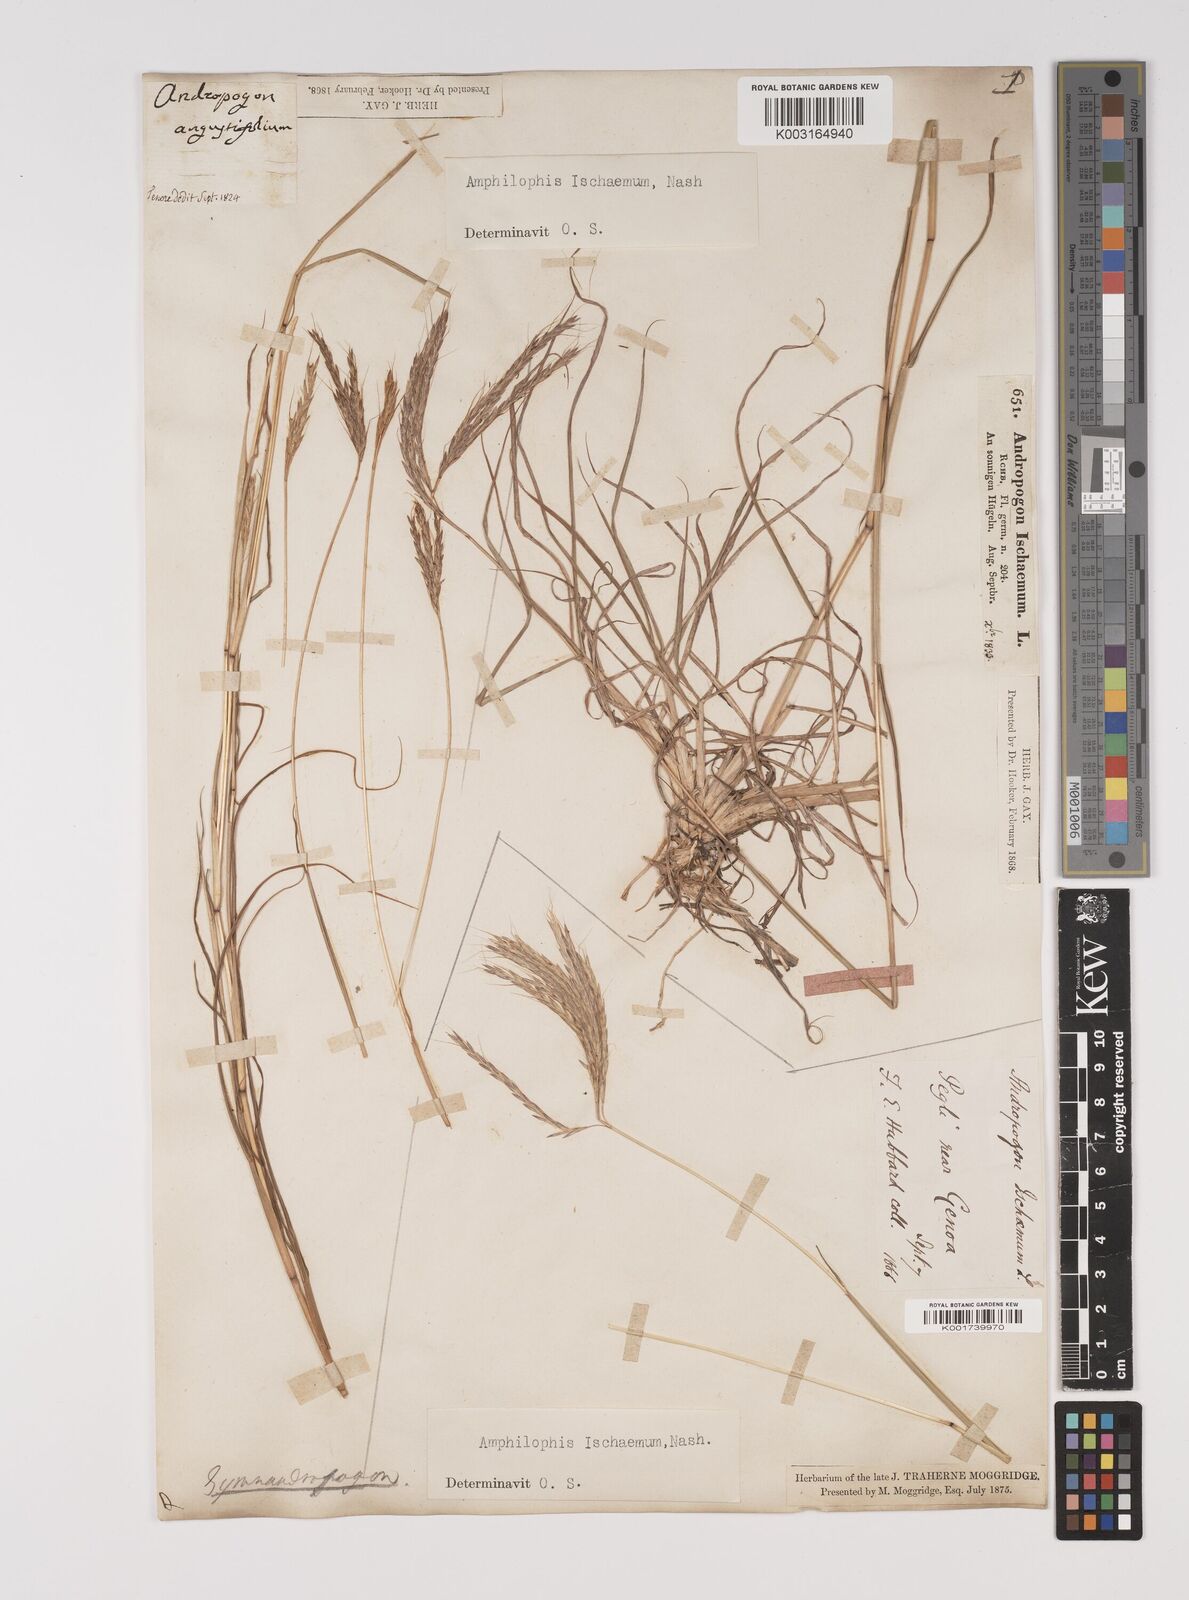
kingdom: Plantae
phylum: Tracheophyta
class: Liliopsida
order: Poales
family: Poaceae
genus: Bothriochloa
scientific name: Bothriochloa ischaemum
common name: Yellow bluestem
